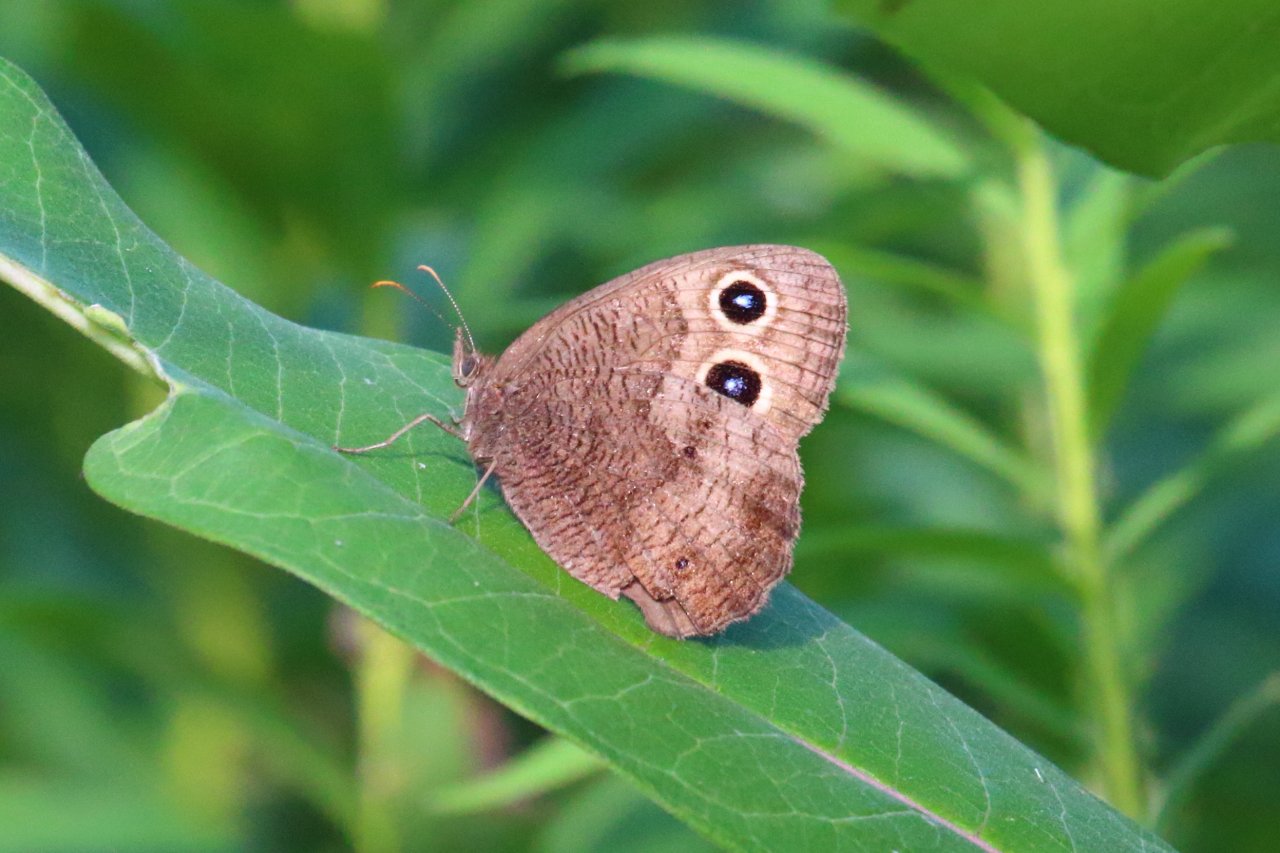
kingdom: Animalia
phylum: Arthropoda
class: Insecta
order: Lepidoptera
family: Nymphalidae
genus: Cercyonis
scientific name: Cercyonis pegala
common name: Common Wood-Nymph
